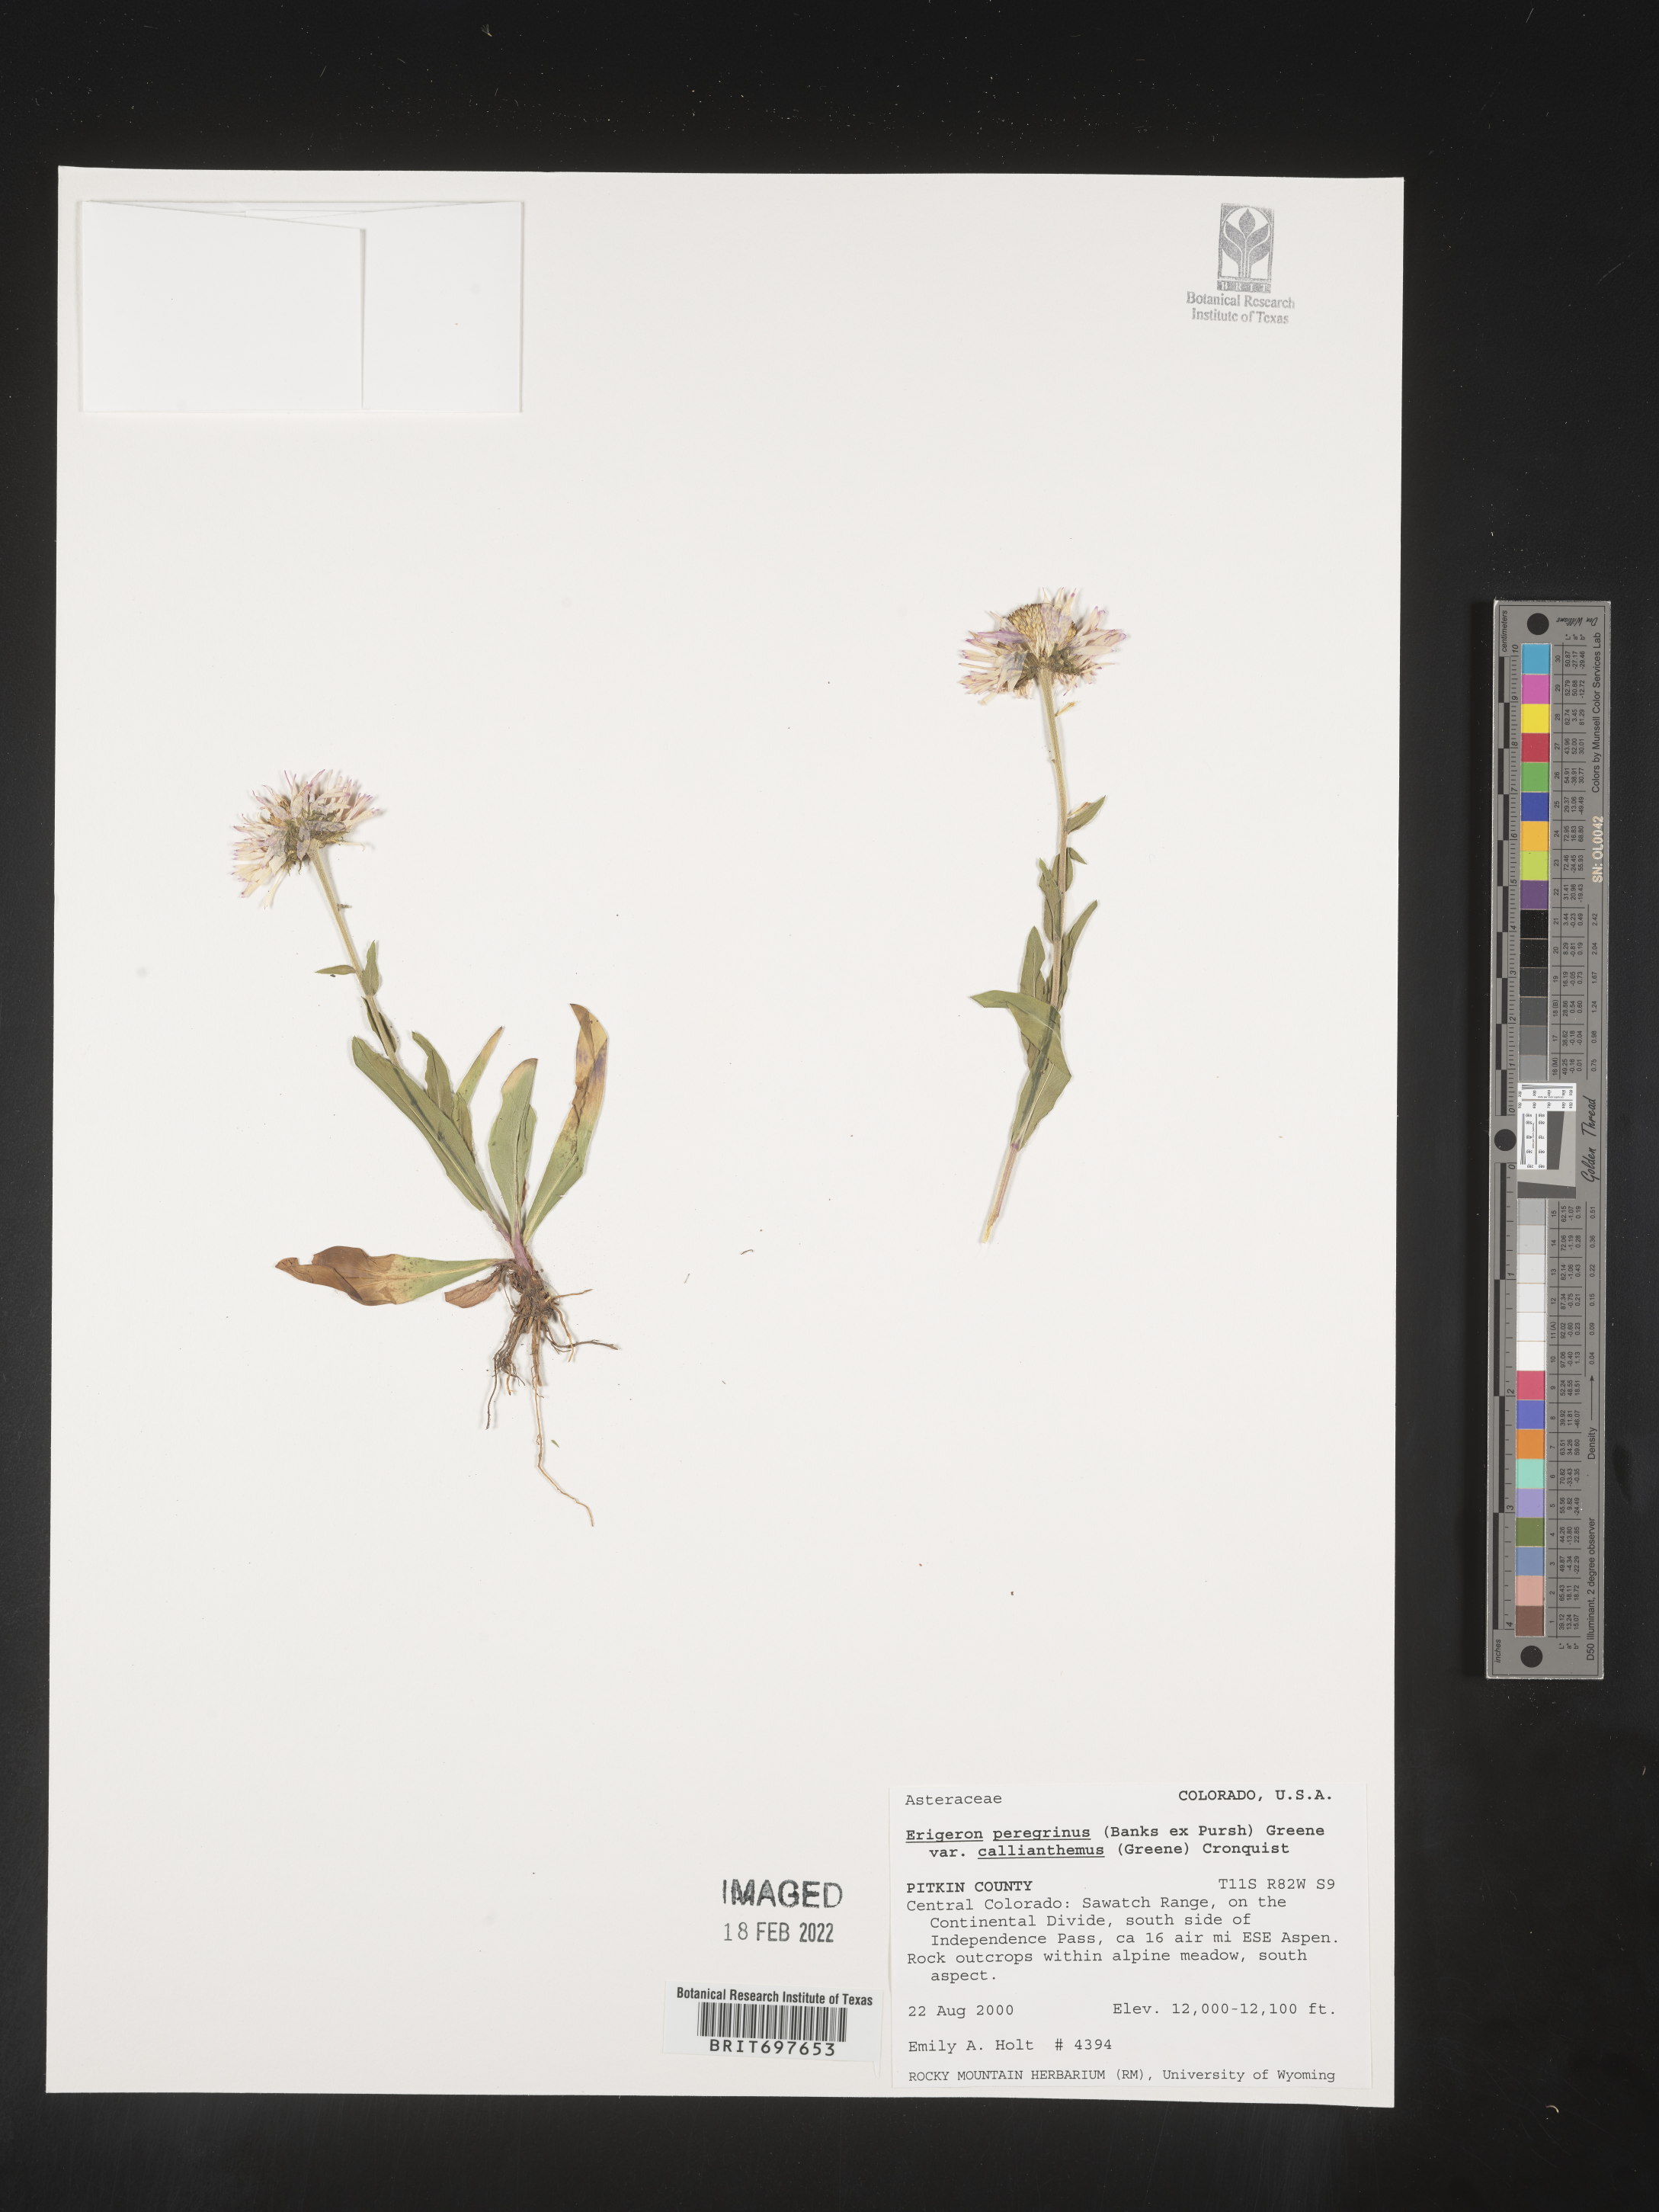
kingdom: Plantae
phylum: Tracheophyta
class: Magnoliopsida
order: Asterales
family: Asteraceae
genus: Erigeron
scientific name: Erigeron peregrinus
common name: Peregrine fleabane
